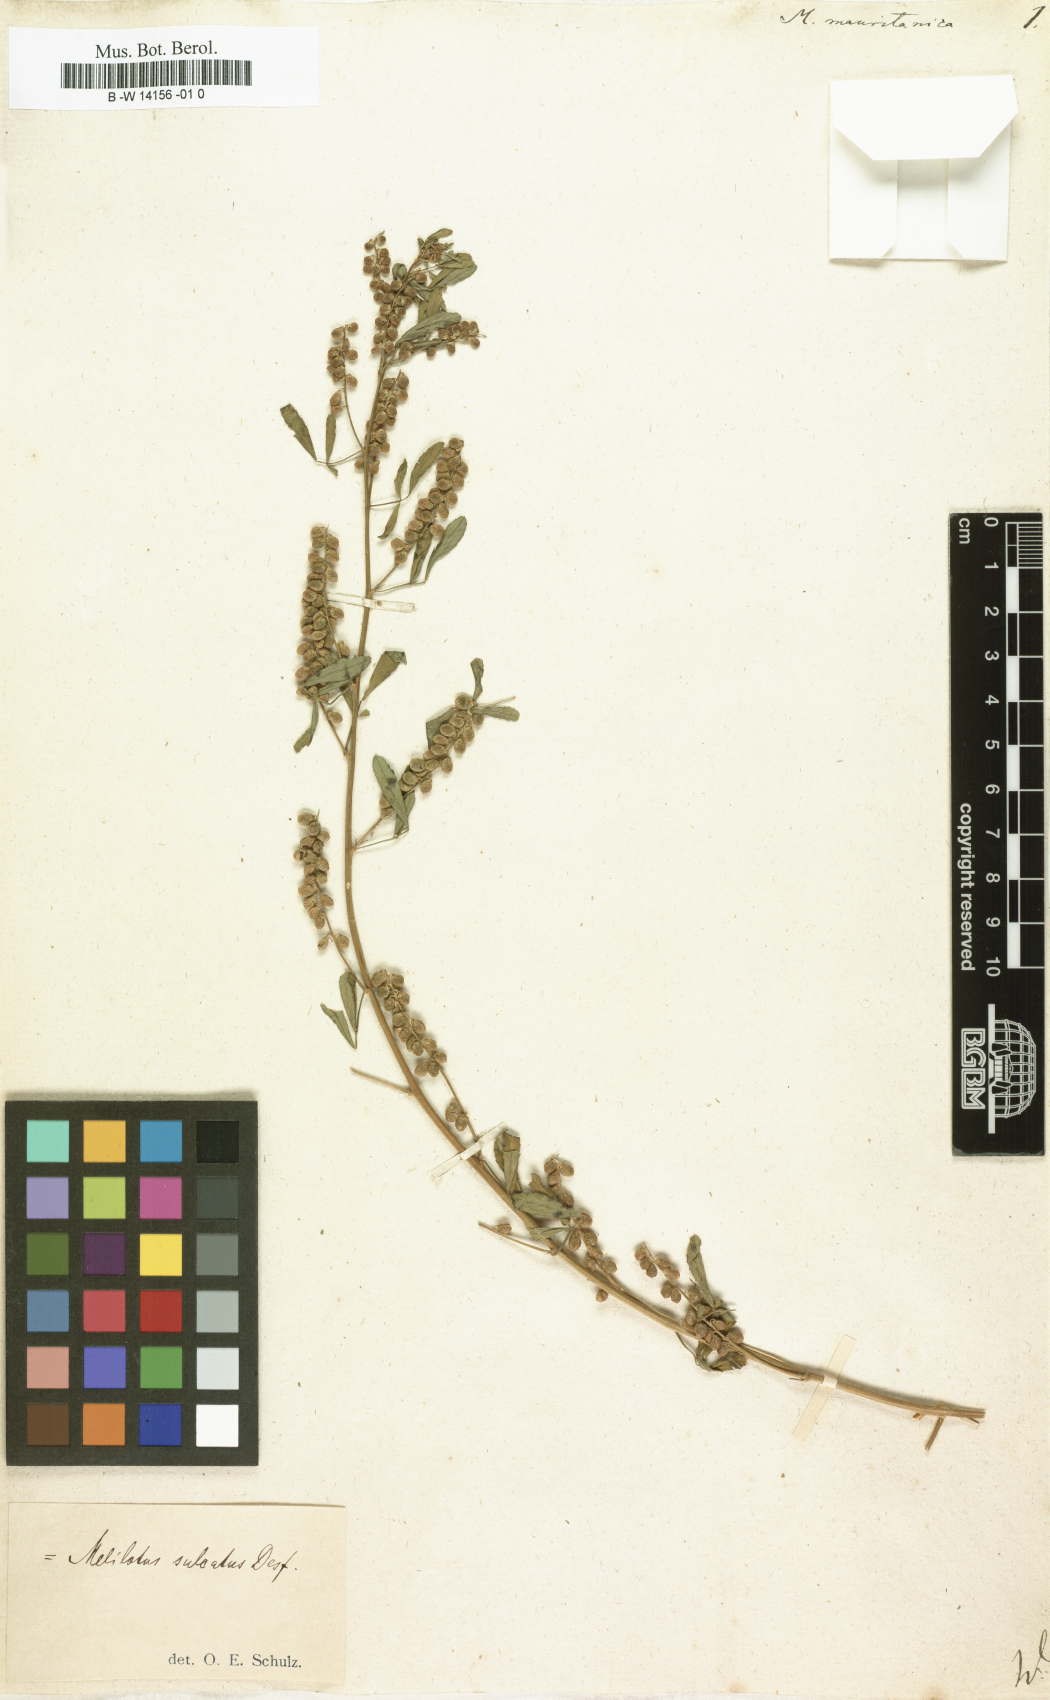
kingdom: Plantae
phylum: Tracheophyta
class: Magnoliopsida
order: Fabales
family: Fabaceae
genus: Melilotus
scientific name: Melilotus officinalis
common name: Sweetclover
